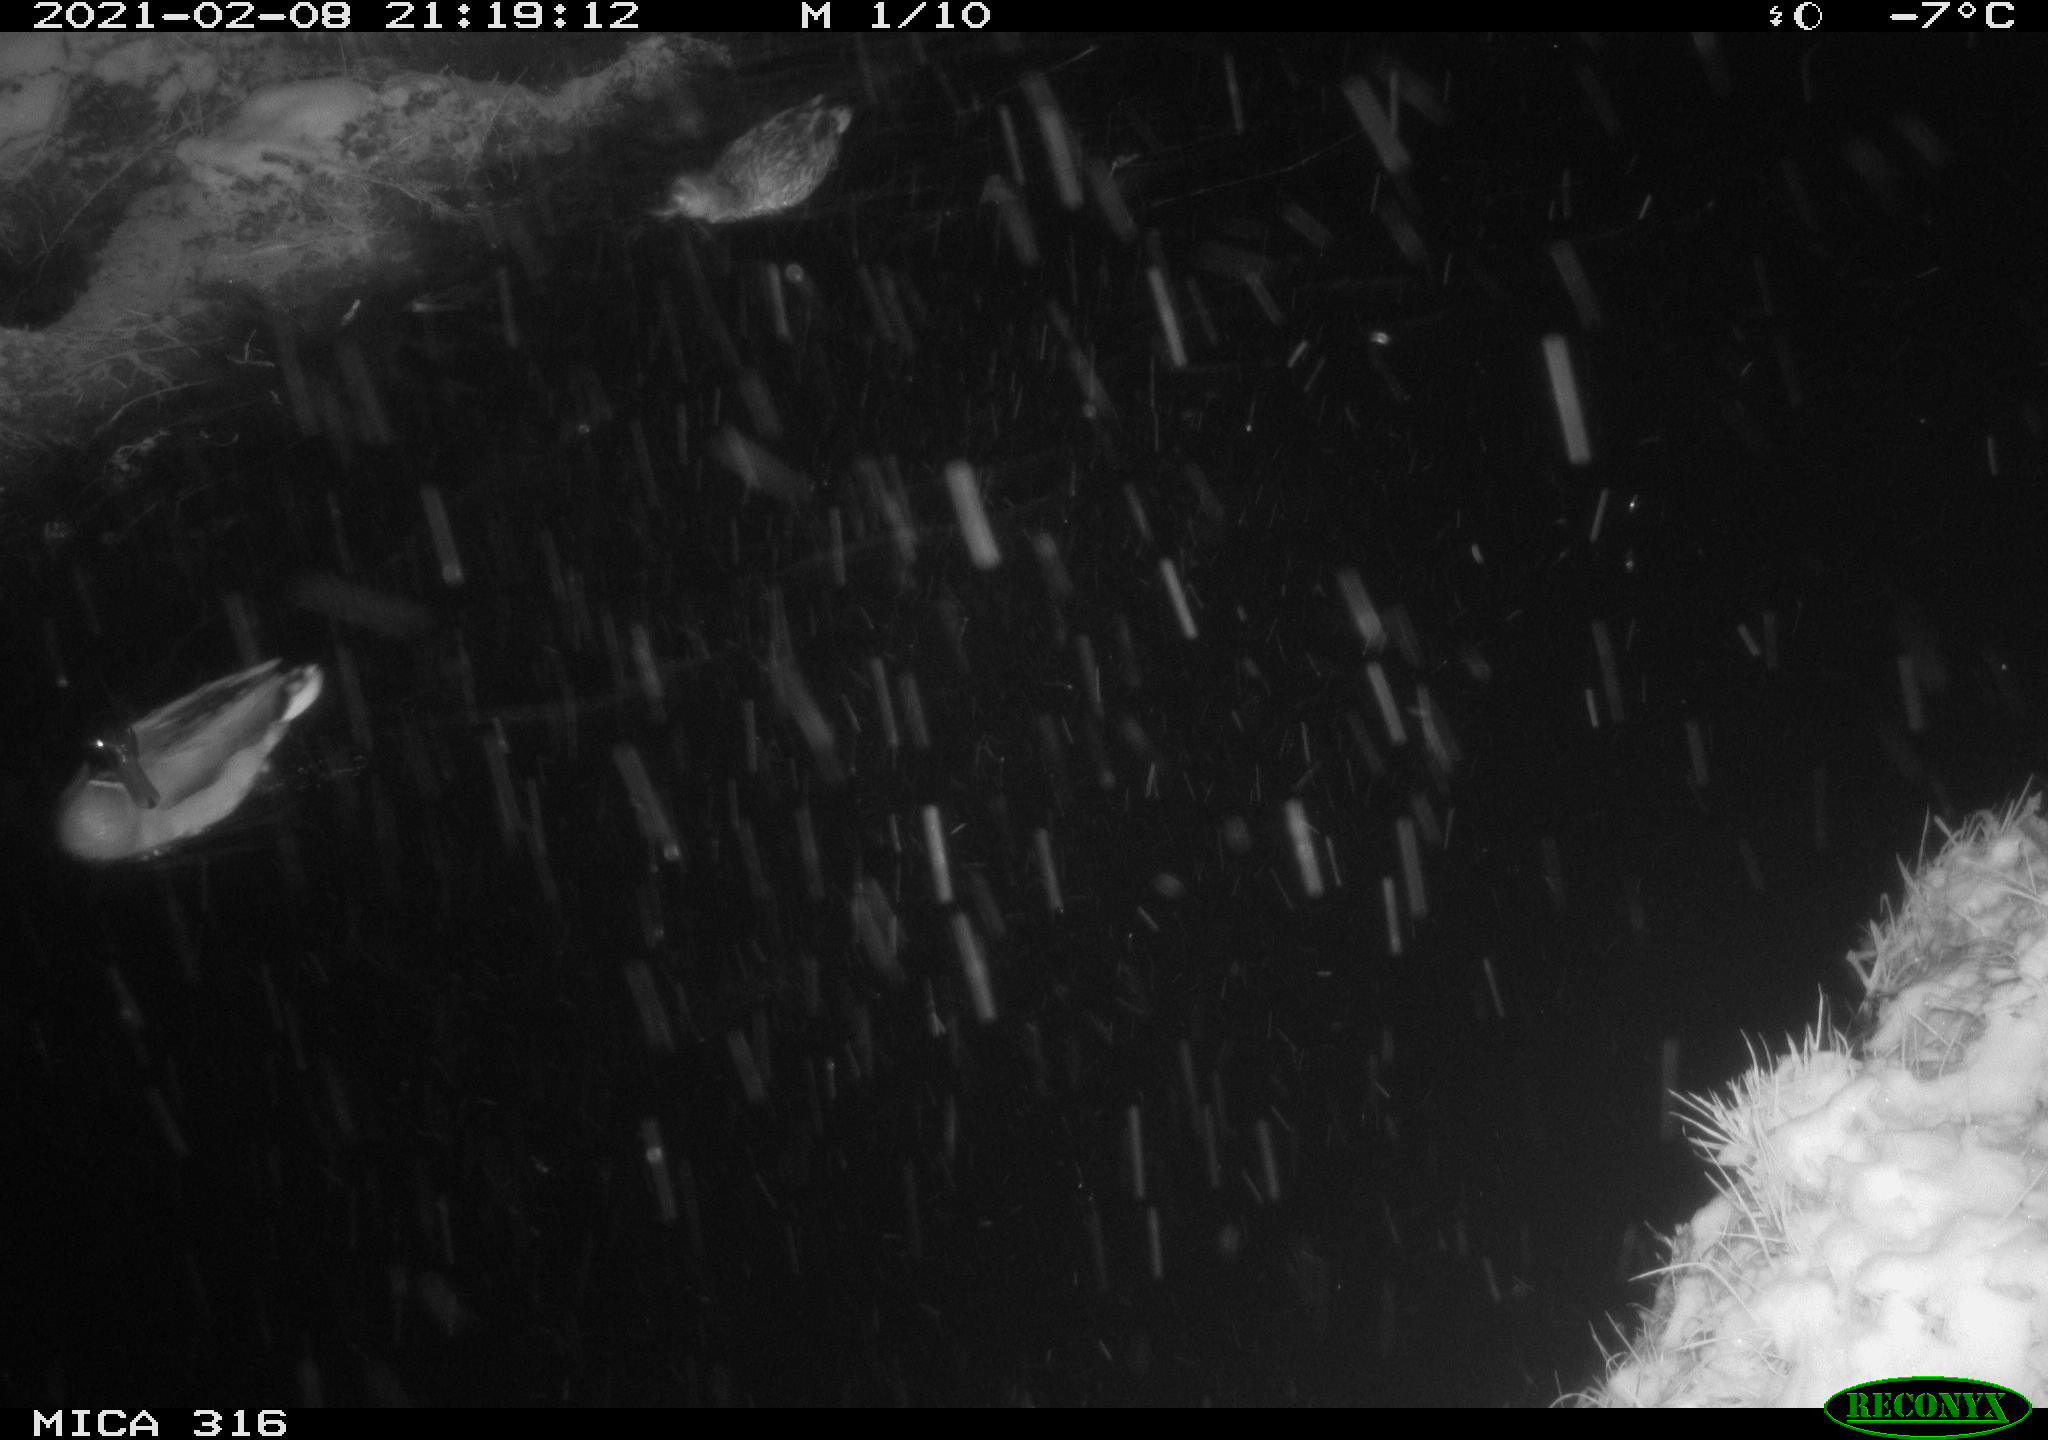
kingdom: Animalia
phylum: Chordata
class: Aves
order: Anseriformes
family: Anatidae
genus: Anas
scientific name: Anas platyrhynchos
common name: Mallard
